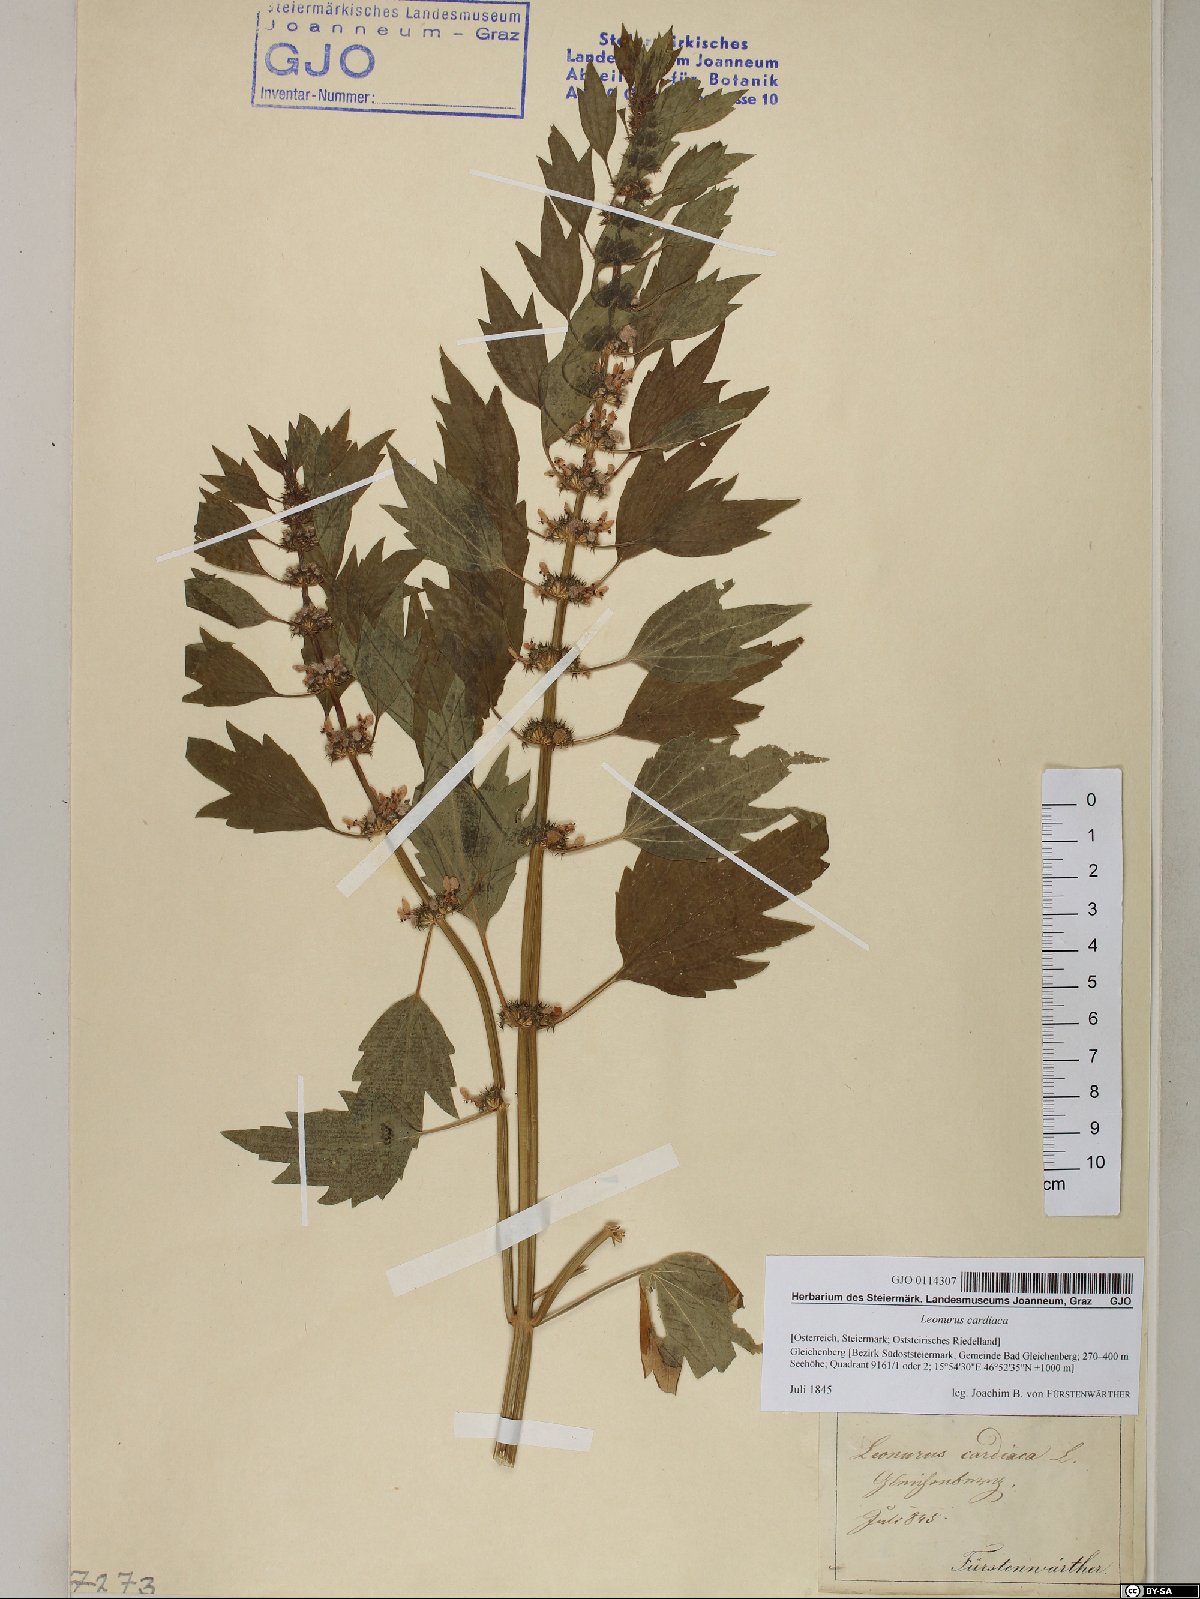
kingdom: Plantae
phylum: Tracheophyta
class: Magnoliopsida
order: Lamiales
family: Lamiaceae
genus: Leonurus
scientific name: Leonurus cardiaca
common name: Motherwort
